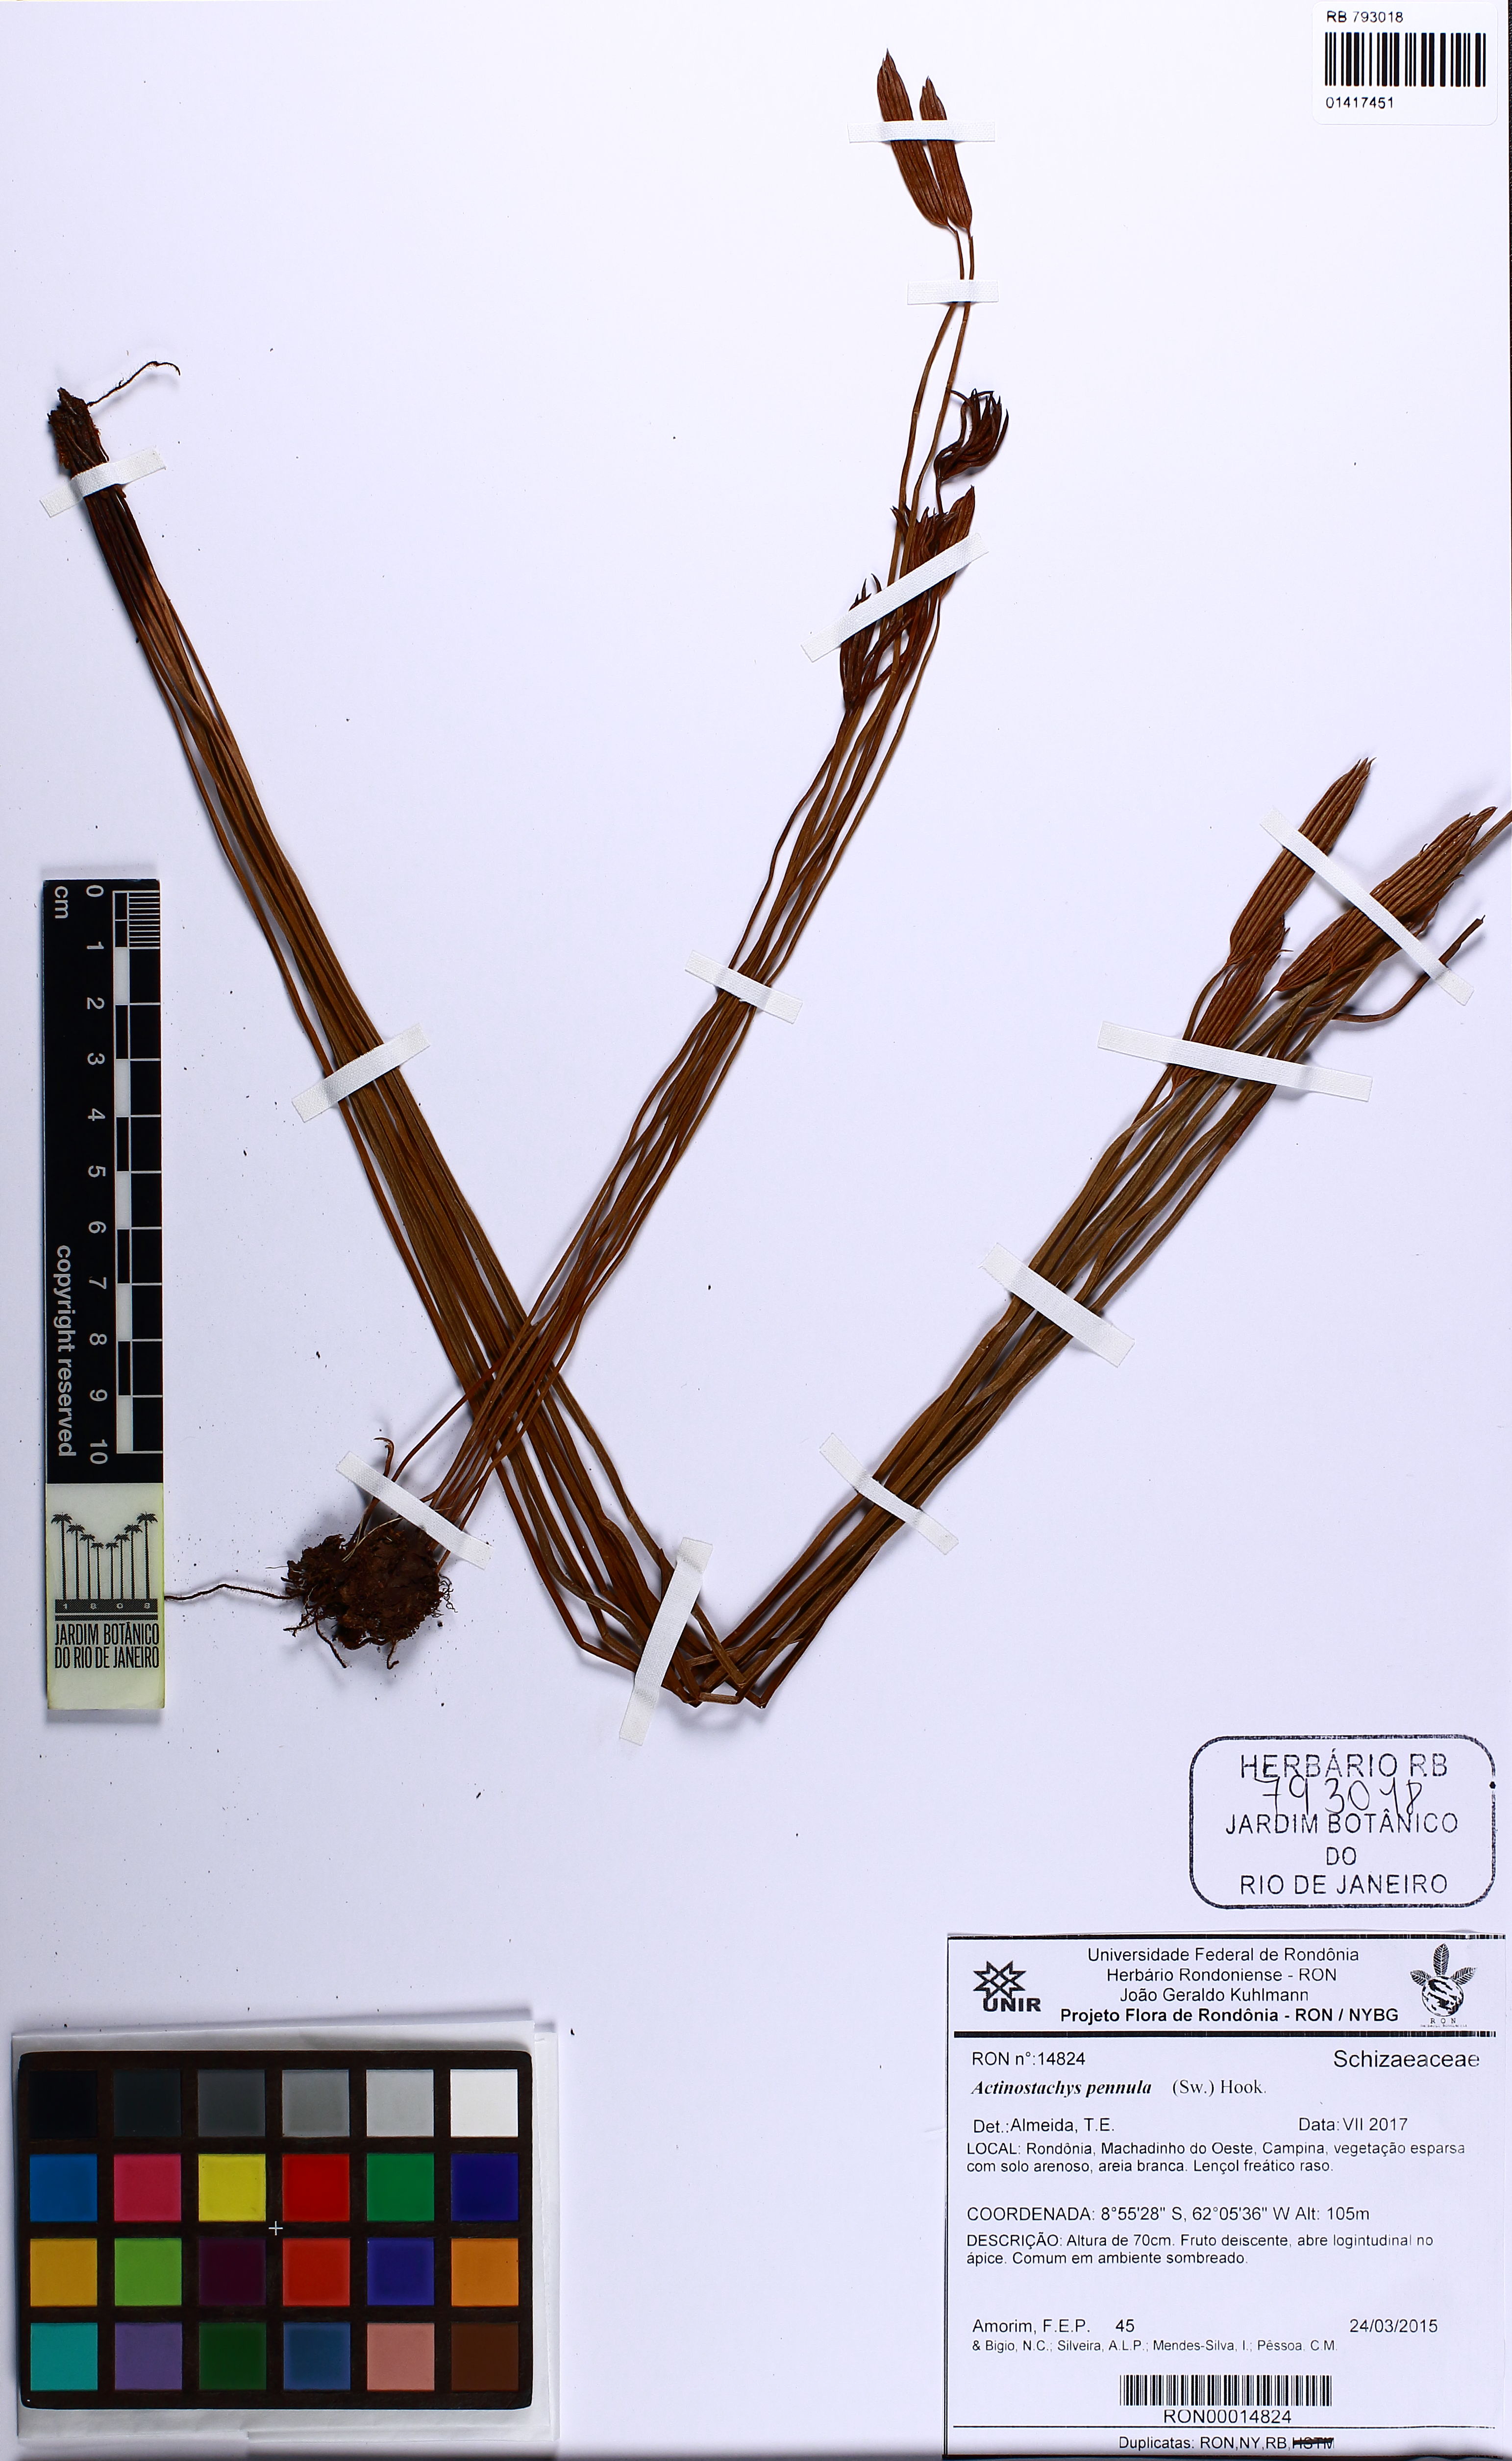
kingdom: Plantae
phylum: Tracheophyta
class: Polypodiopsida
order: Schizaeales
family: Schizaeaceae
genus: Actinostachys
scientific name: Actinostachys pennula
